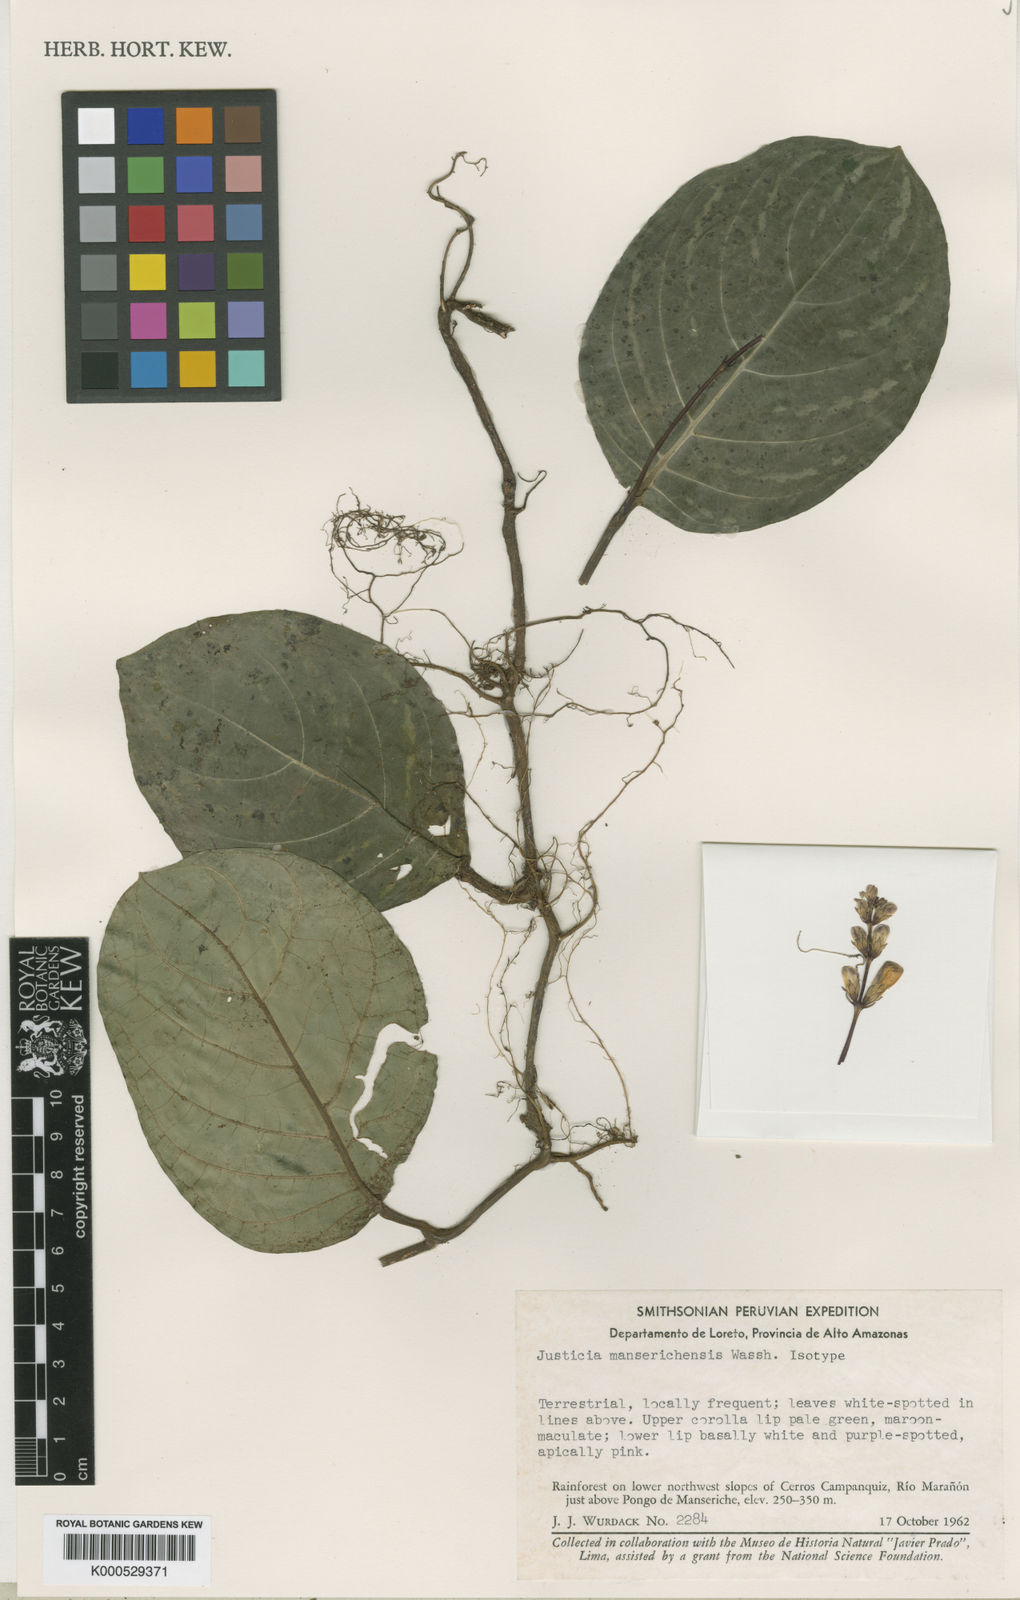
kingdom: Plantae
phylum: Tracheophyta
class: Magnoliopsida
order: Lamiales
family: Acanthaceae
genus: Justicia
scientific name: Justicia manserichensis
